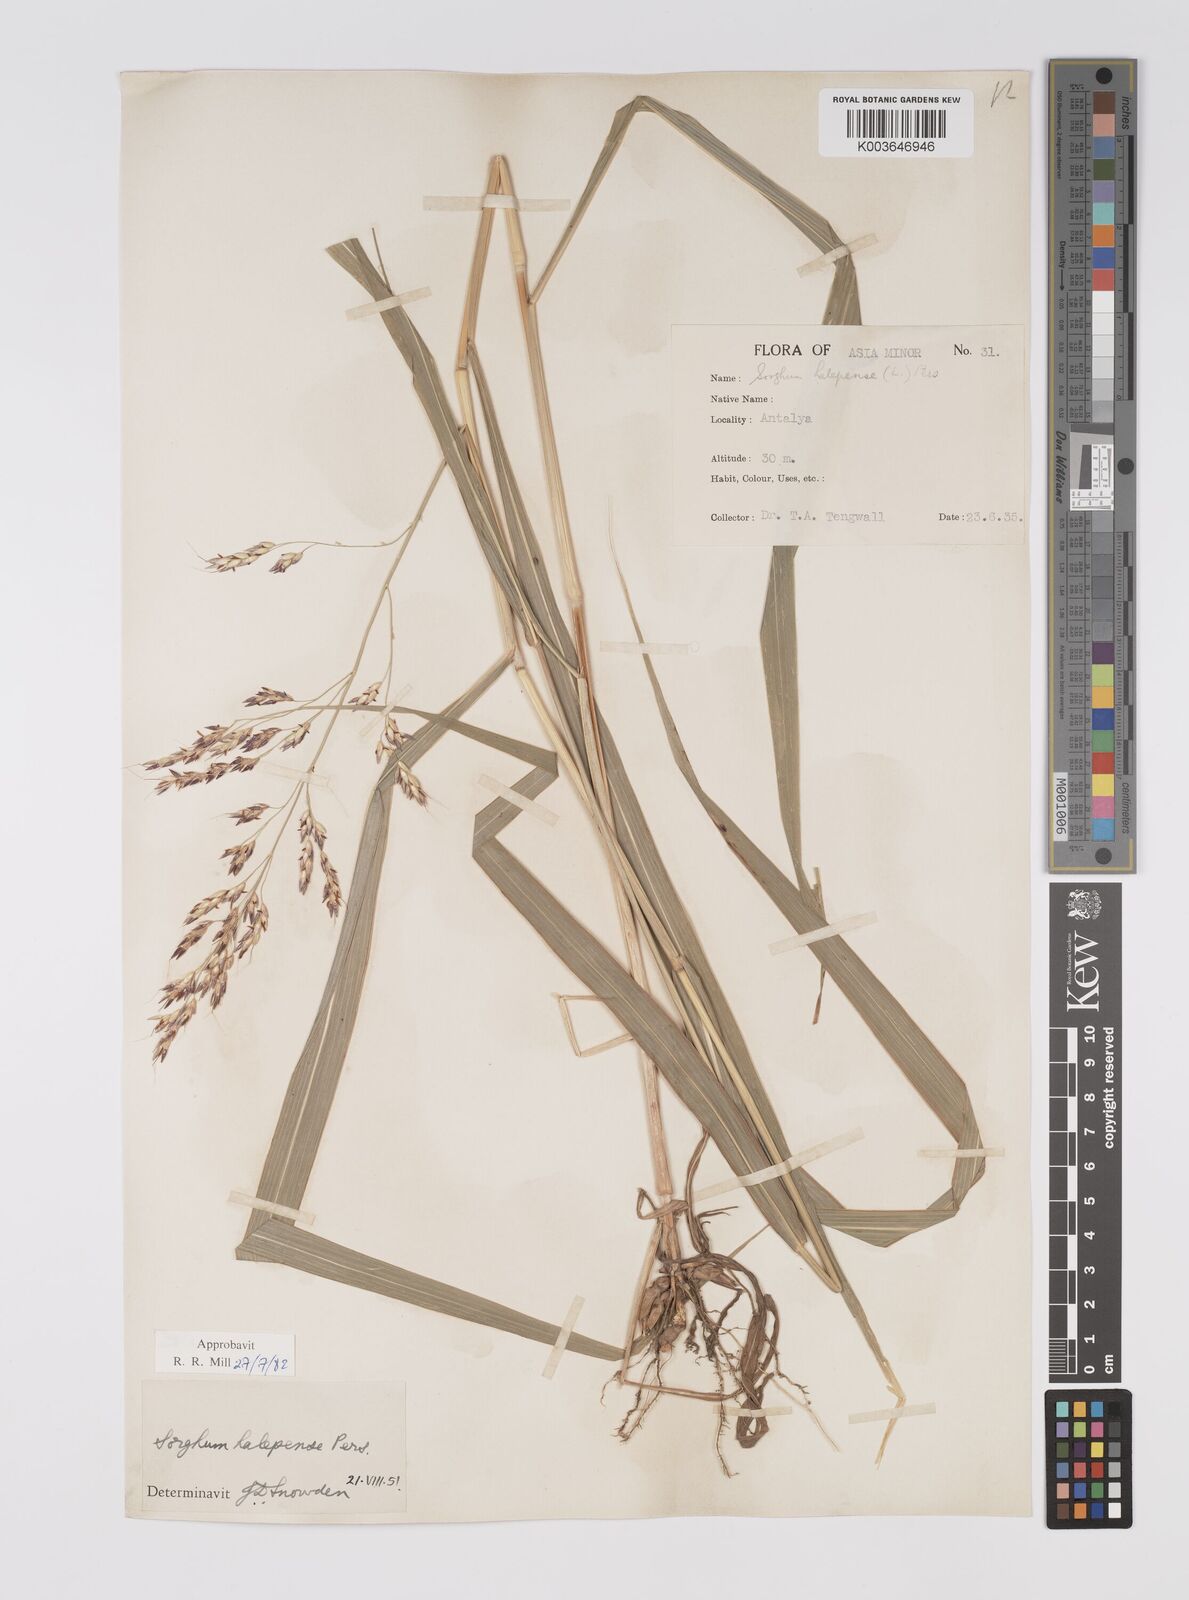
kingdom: Plantae
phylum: Tracheophyta
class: Liliopsida
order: Poales
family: Poaceae
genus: Sorghum
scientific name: Sorghum halepense
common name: Johnson-grass
